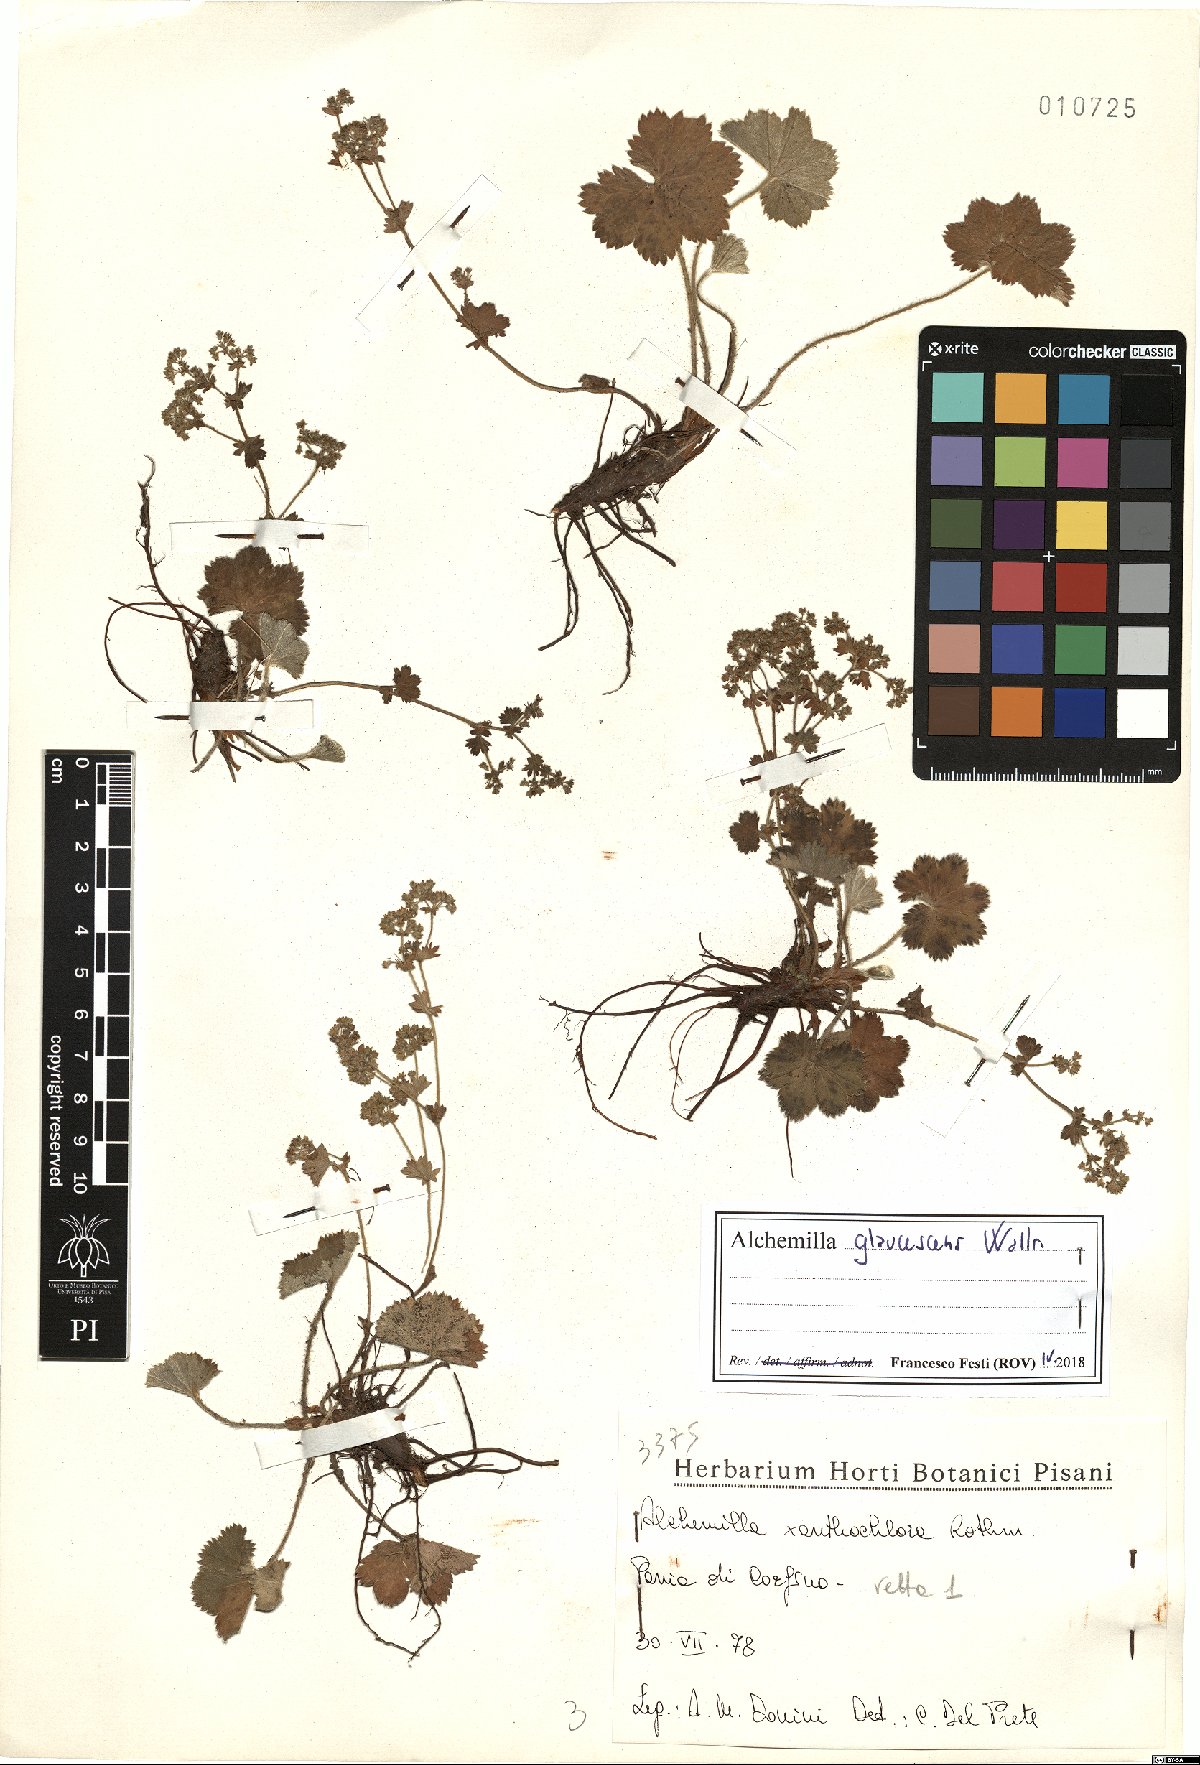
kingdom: Plantae
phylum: Tracheophyta
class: Magnoliopsida
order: Rosales
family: Rosaceae
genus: Alchemilla
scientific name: Alchemilla glaucescens
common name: Silky lady's mantle
